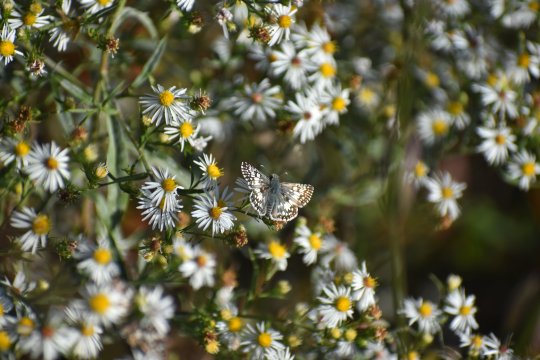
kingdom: Animalia
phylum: Arthropoda
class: Insecta
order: Lepidoptera
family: Hesperiidae
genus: Pyrgus
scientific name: Pyrgus
